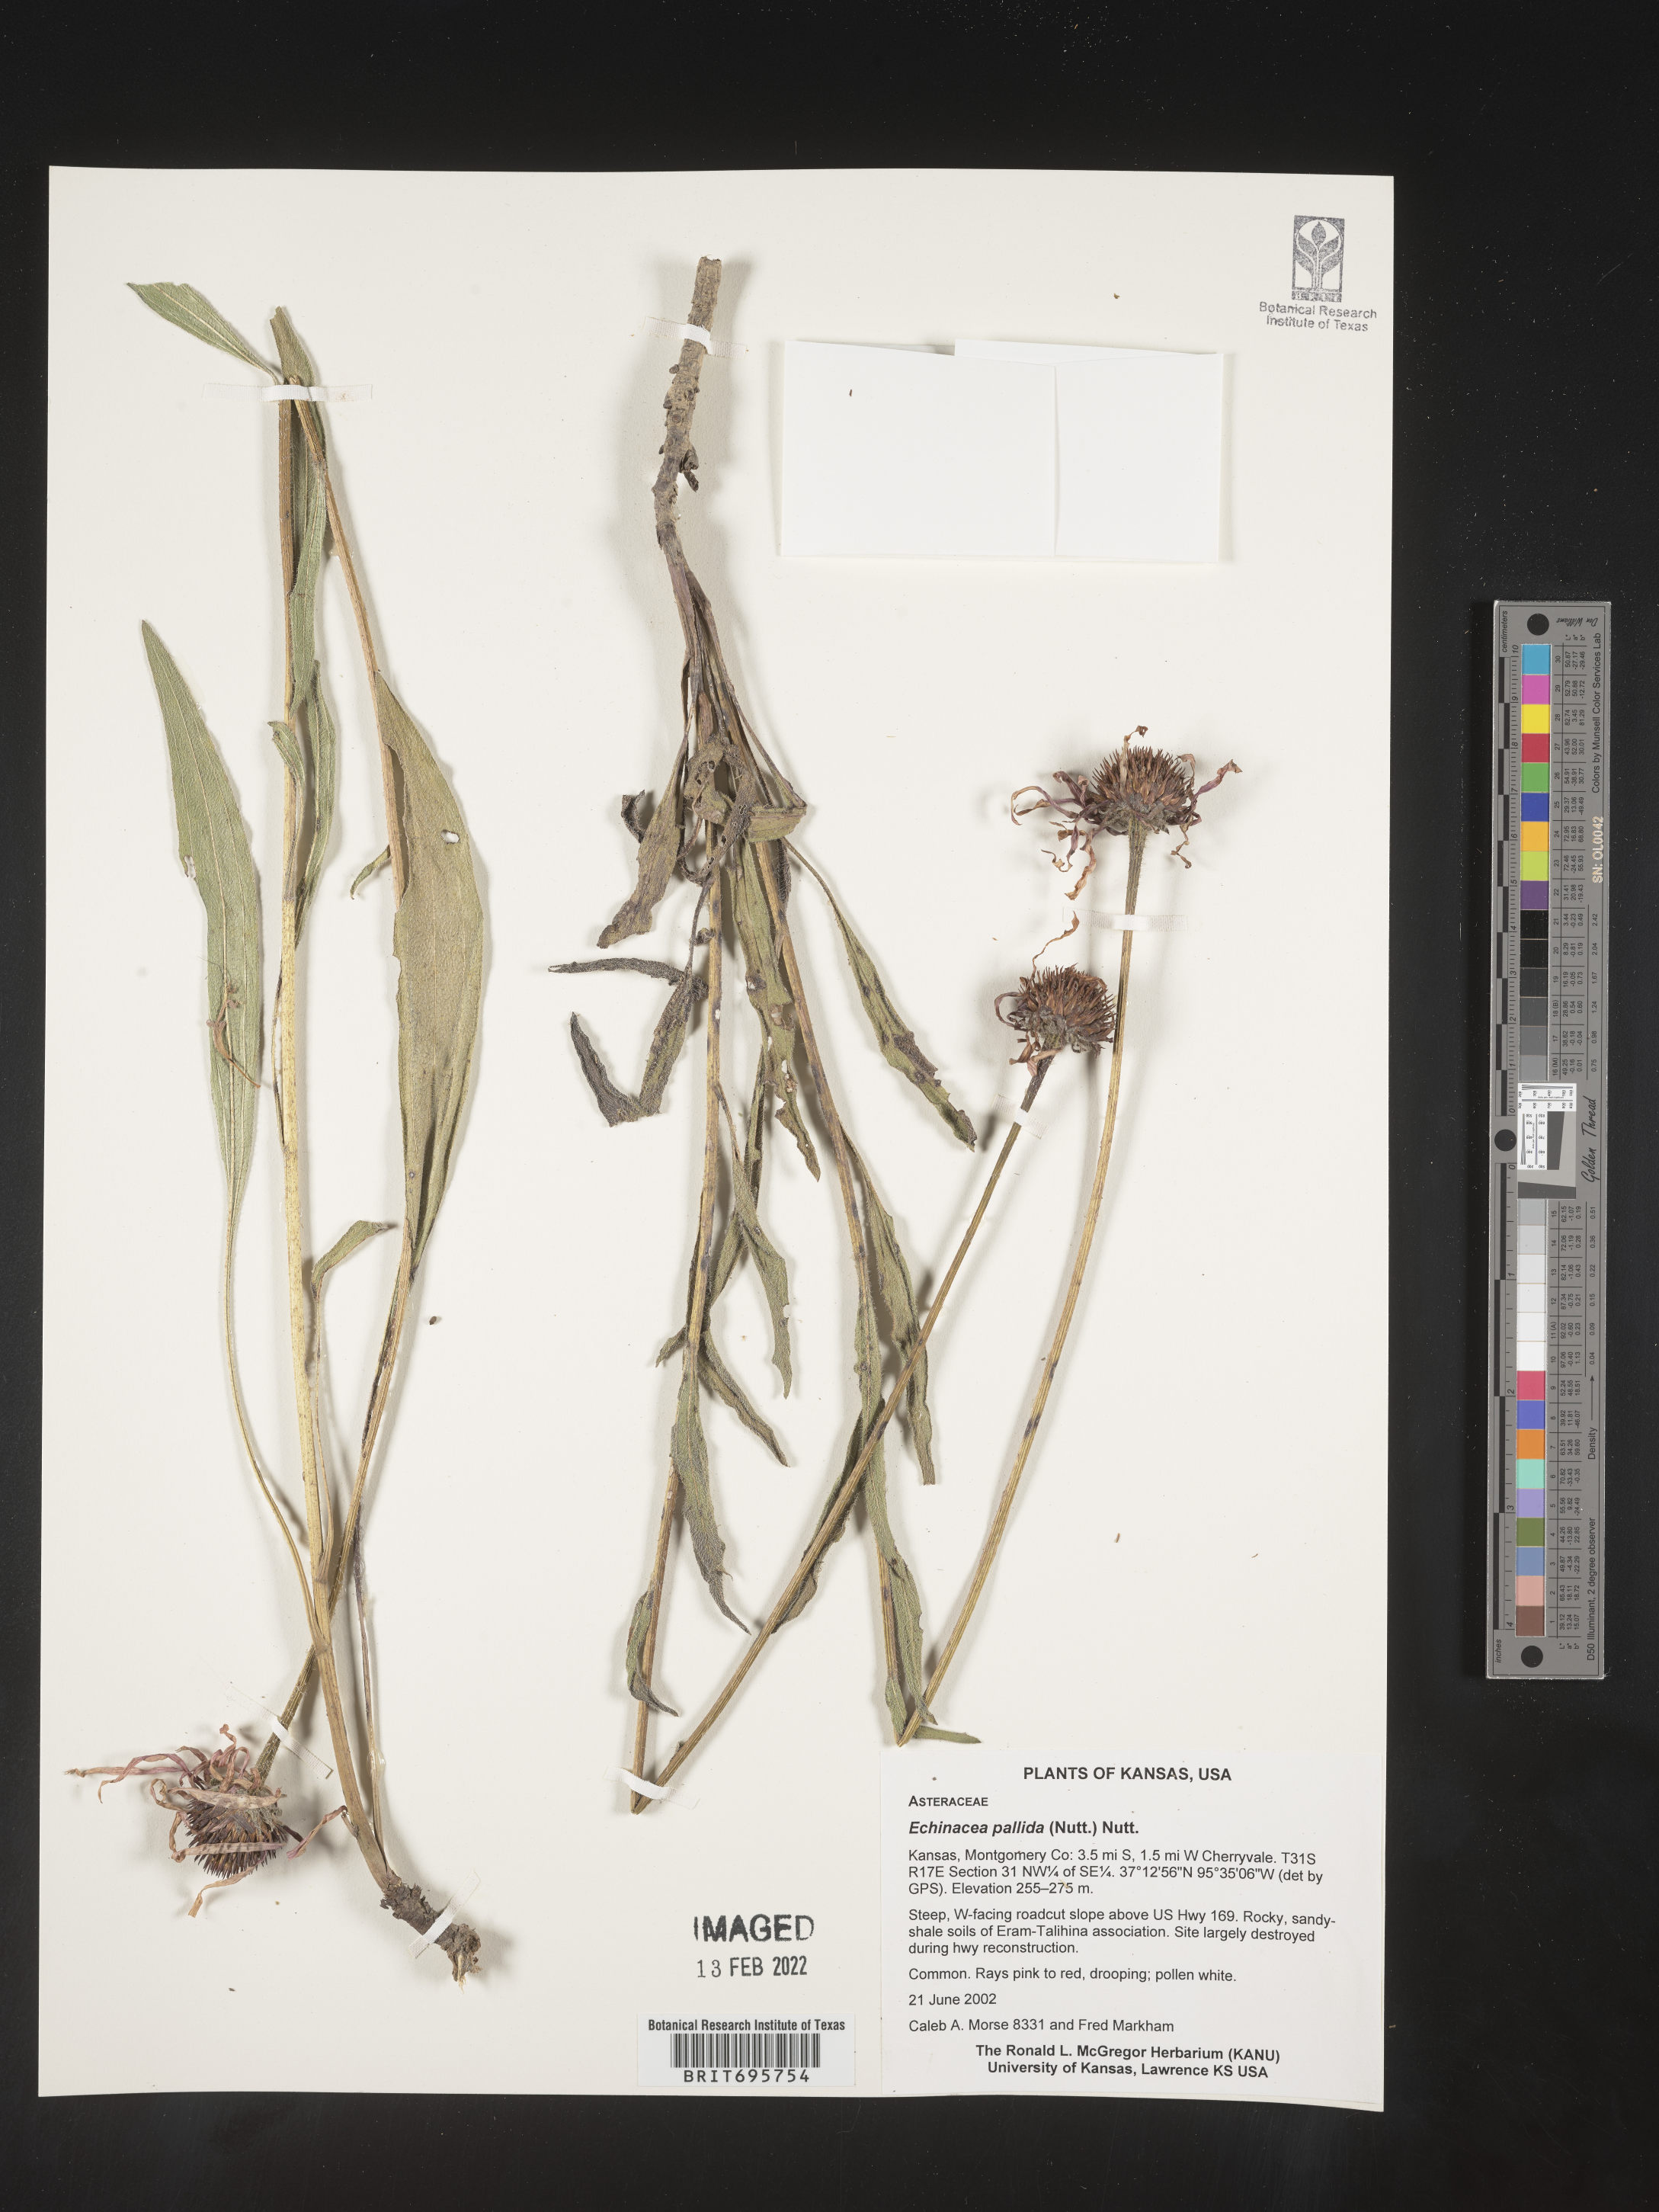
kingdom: Plantae
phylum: Tracheophyta
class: Magnoliopsida
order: Asterales
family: Asteraceae
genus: Echinacea
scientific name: Echinacea pallida
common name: Pale echinacea
